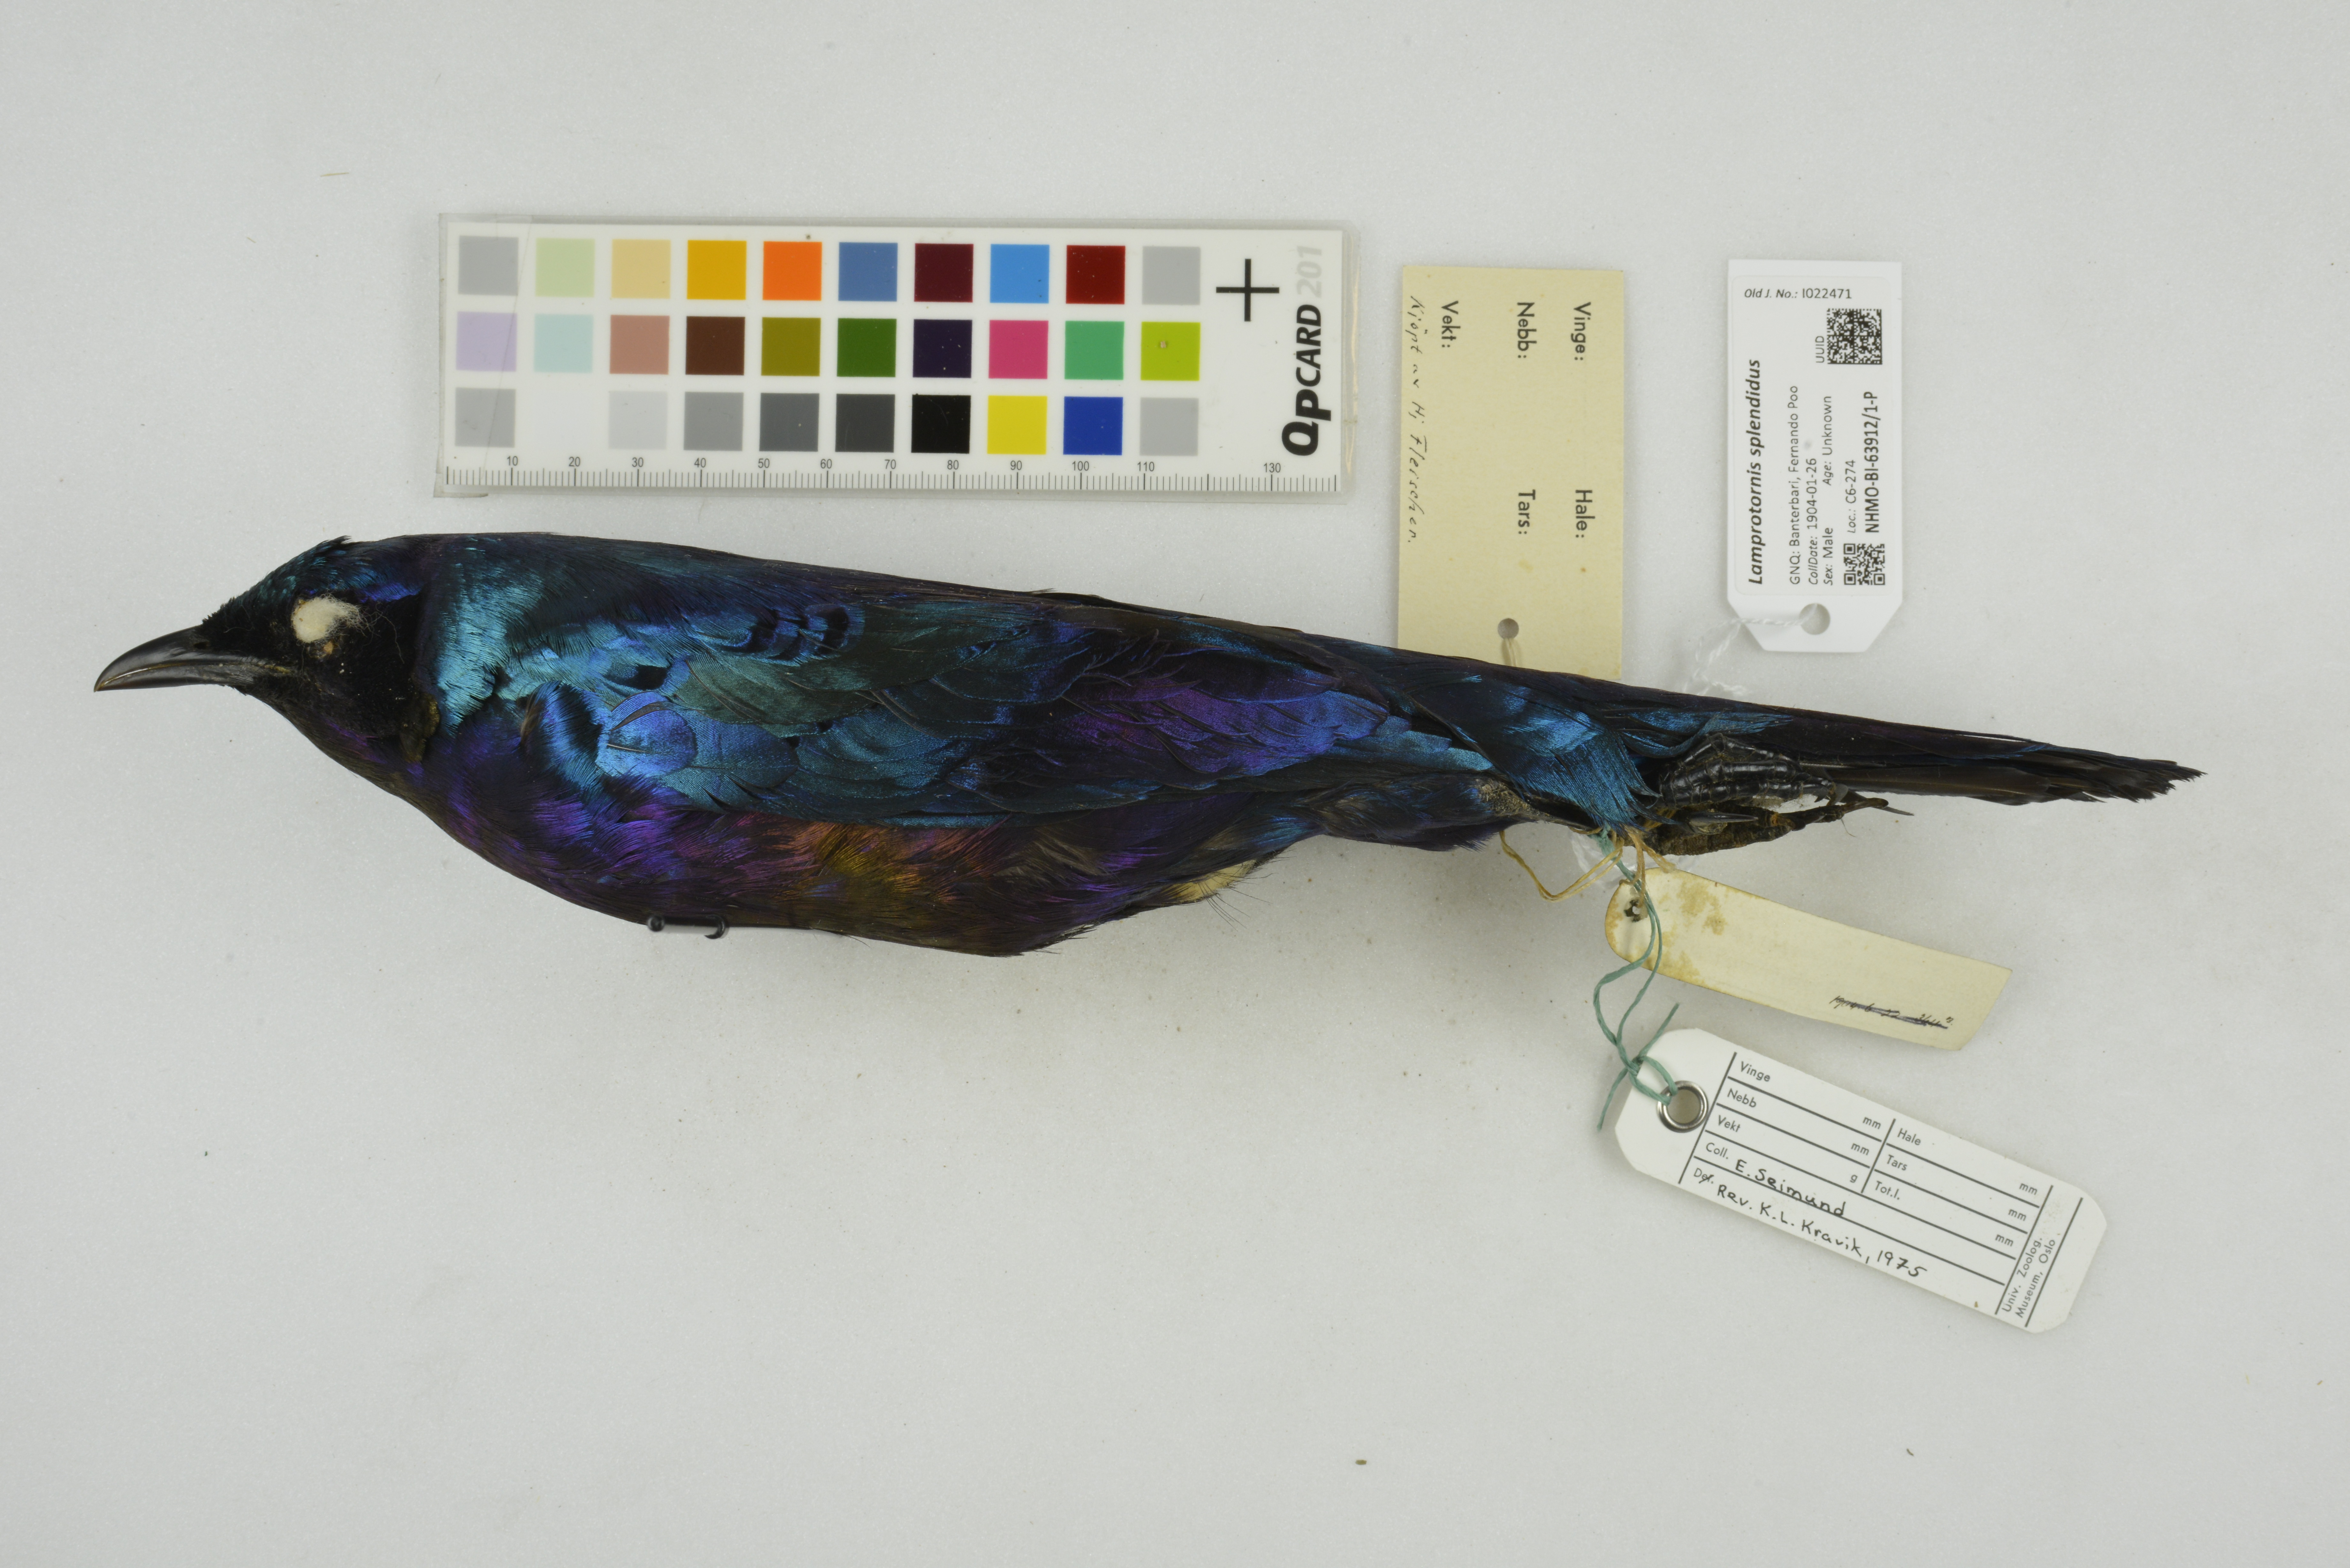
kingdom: Animalia
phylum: Chordata
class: Aves
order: Passeriformes
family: Sturnidae
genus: Lamprotornis
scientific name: Lamprotornis splendidus
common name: Splendid starling
